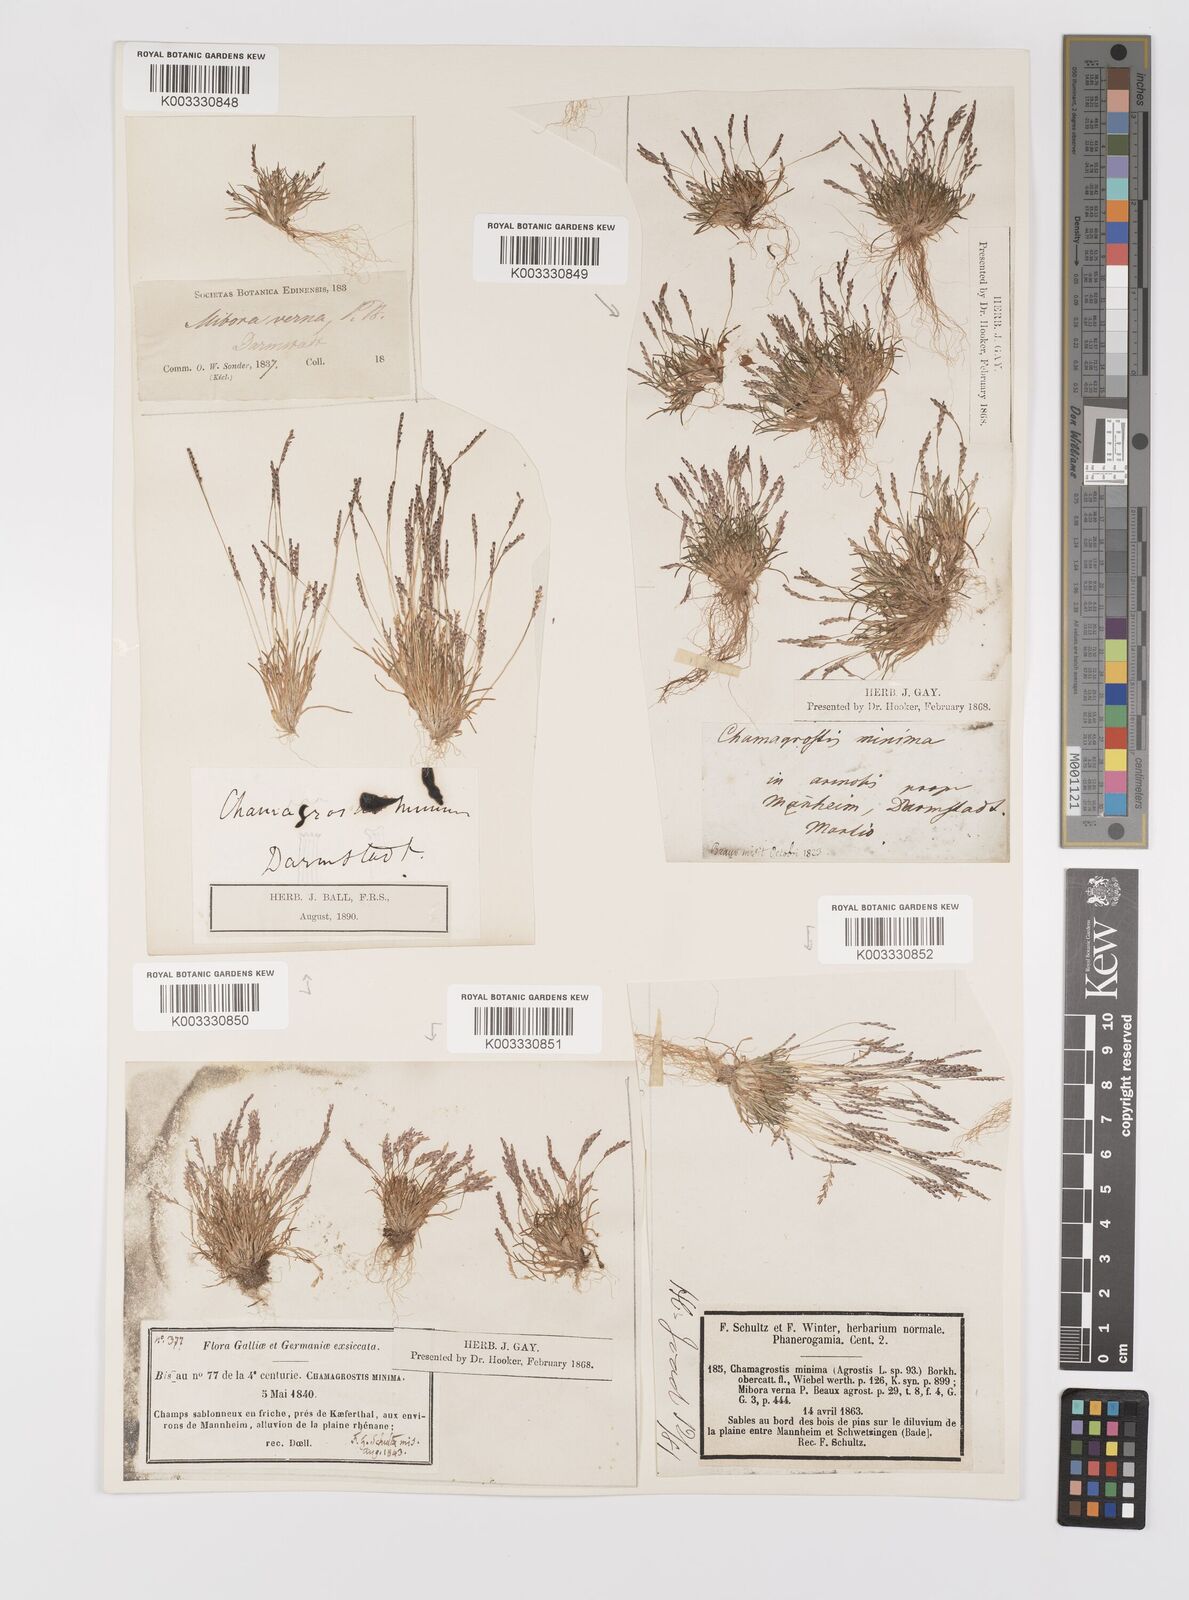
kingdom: Plantae
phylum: Tracheophyta
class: Liliopsida
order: Poales
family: Poaceae
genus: Mibora
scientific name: Mibora minima
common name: Early sand-grass
